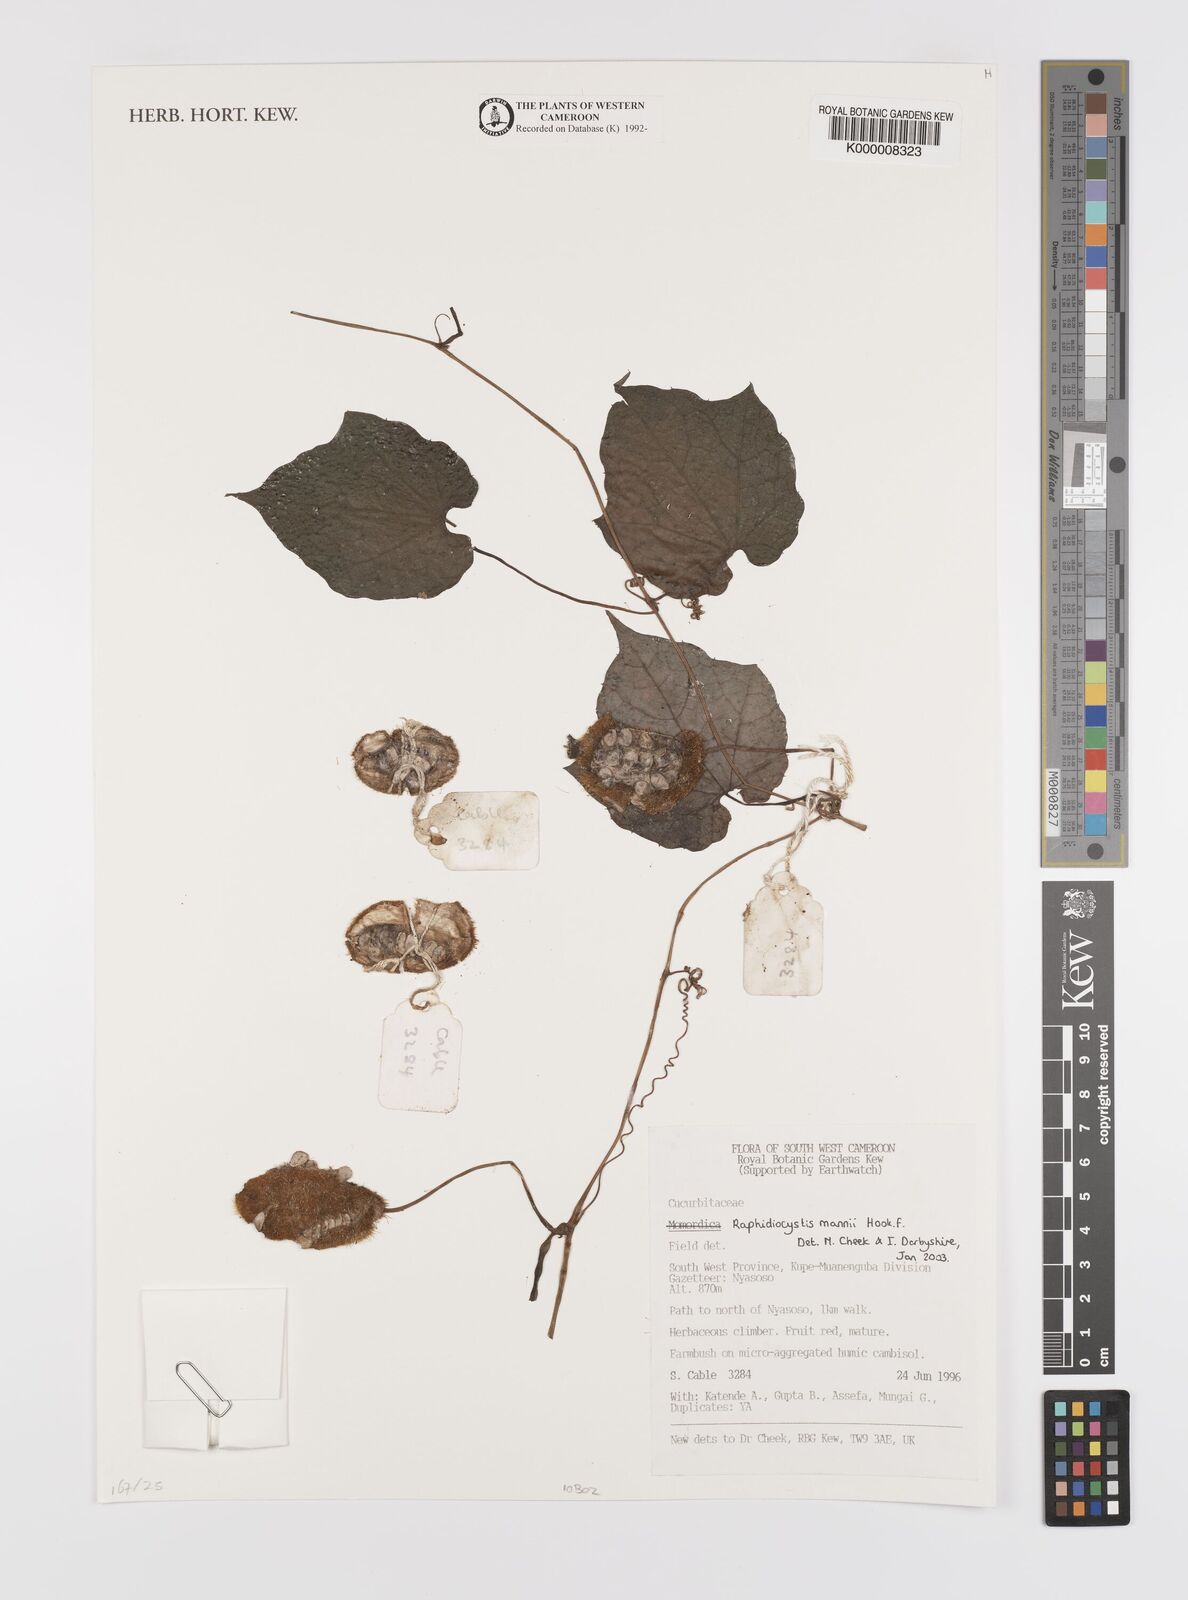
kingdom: Plantae
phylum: Tracheophyta
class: Magnoliopsida
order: Cucurbitales
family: Cucurbitaceae
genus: Raphidiocystis
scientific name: Raphidiocystis mannii
